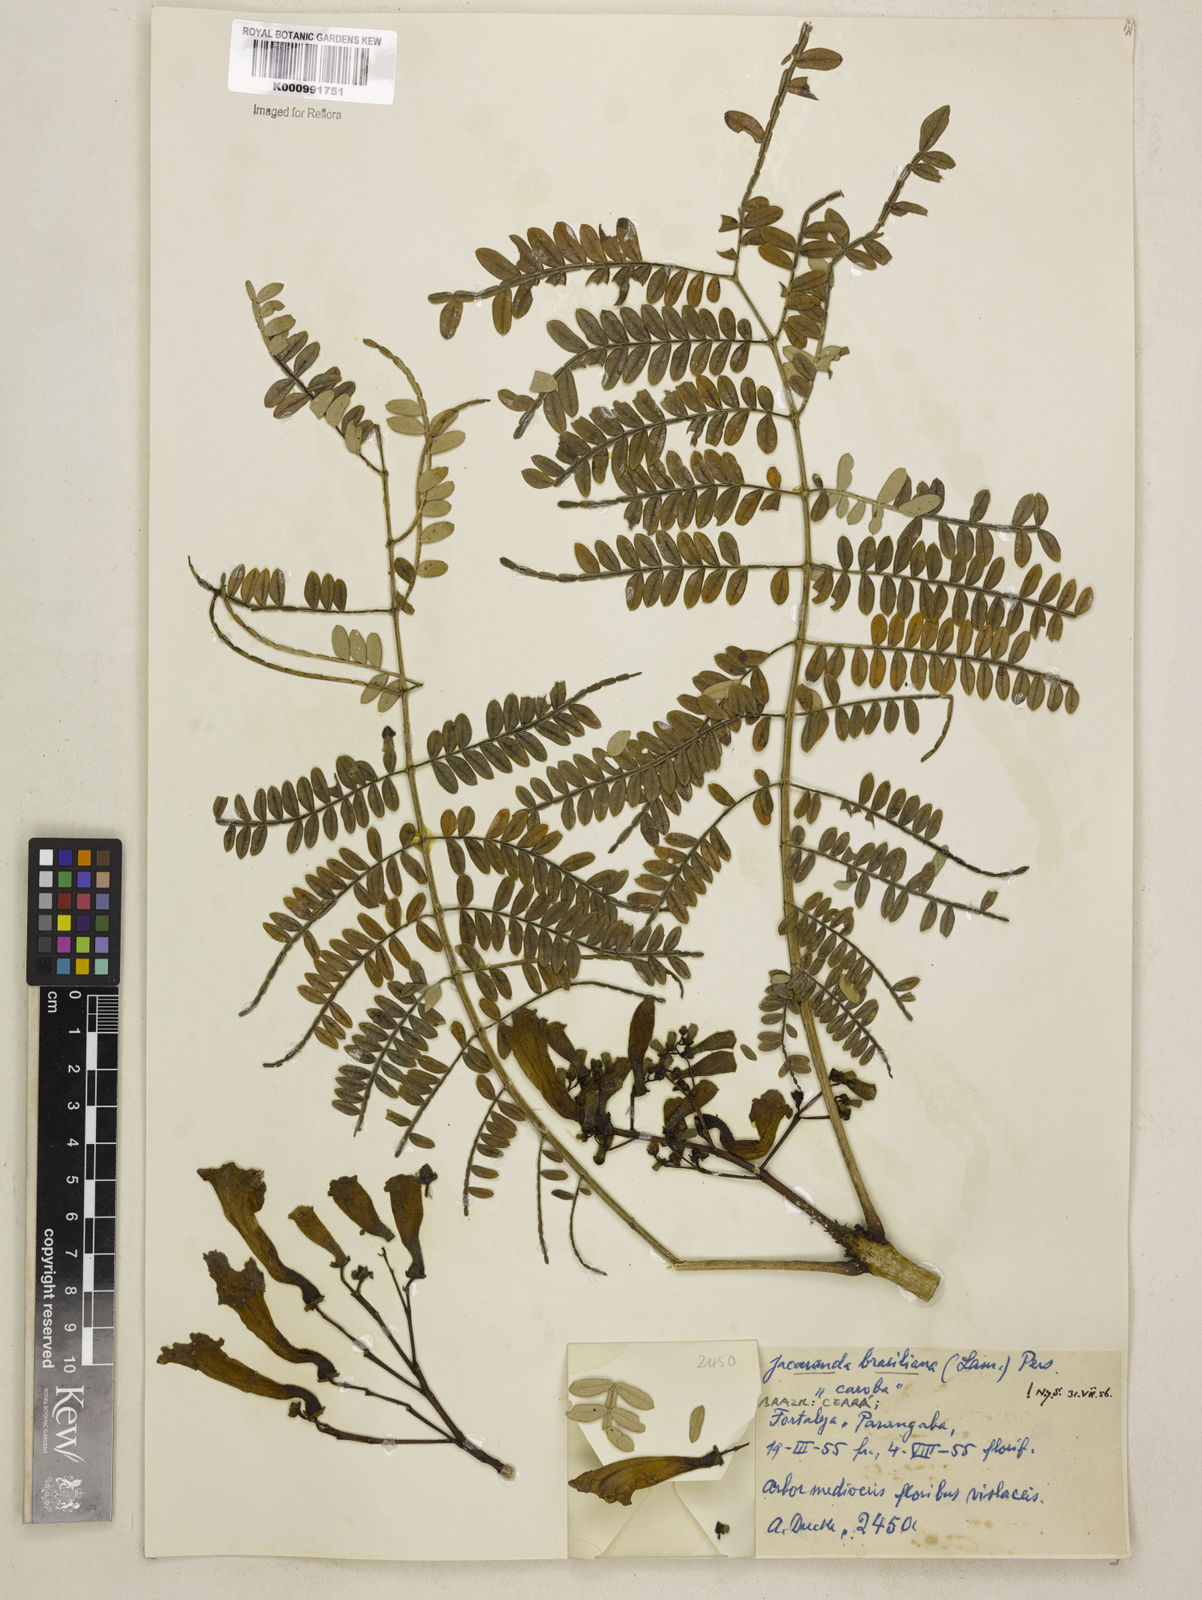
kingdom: Plantae
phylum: Tracheophyta
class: Magnoliopsida
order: Lamiales
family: Bignoniaceae
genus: Jacaranda
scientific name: Jacaranda brasiliana
